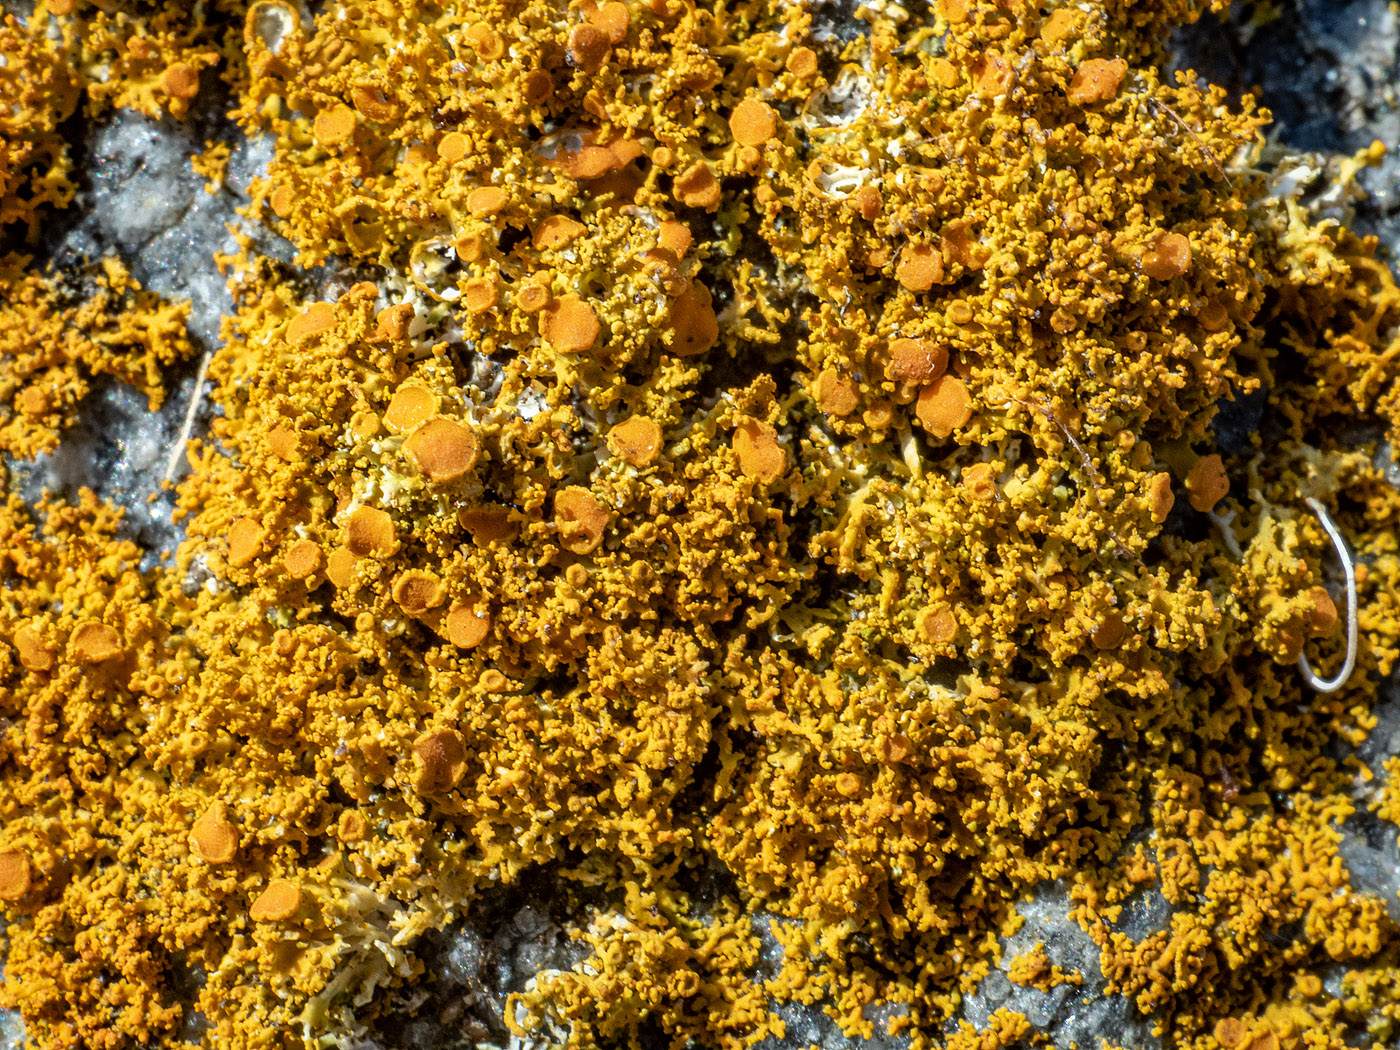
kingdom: Fungi
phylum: Ascomycota
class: Lecanoromycetes
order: Teloschistales
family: Teloschistaceae
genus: Polycauliona
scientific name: Polycauliona candelaria
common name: tue-orangelav
